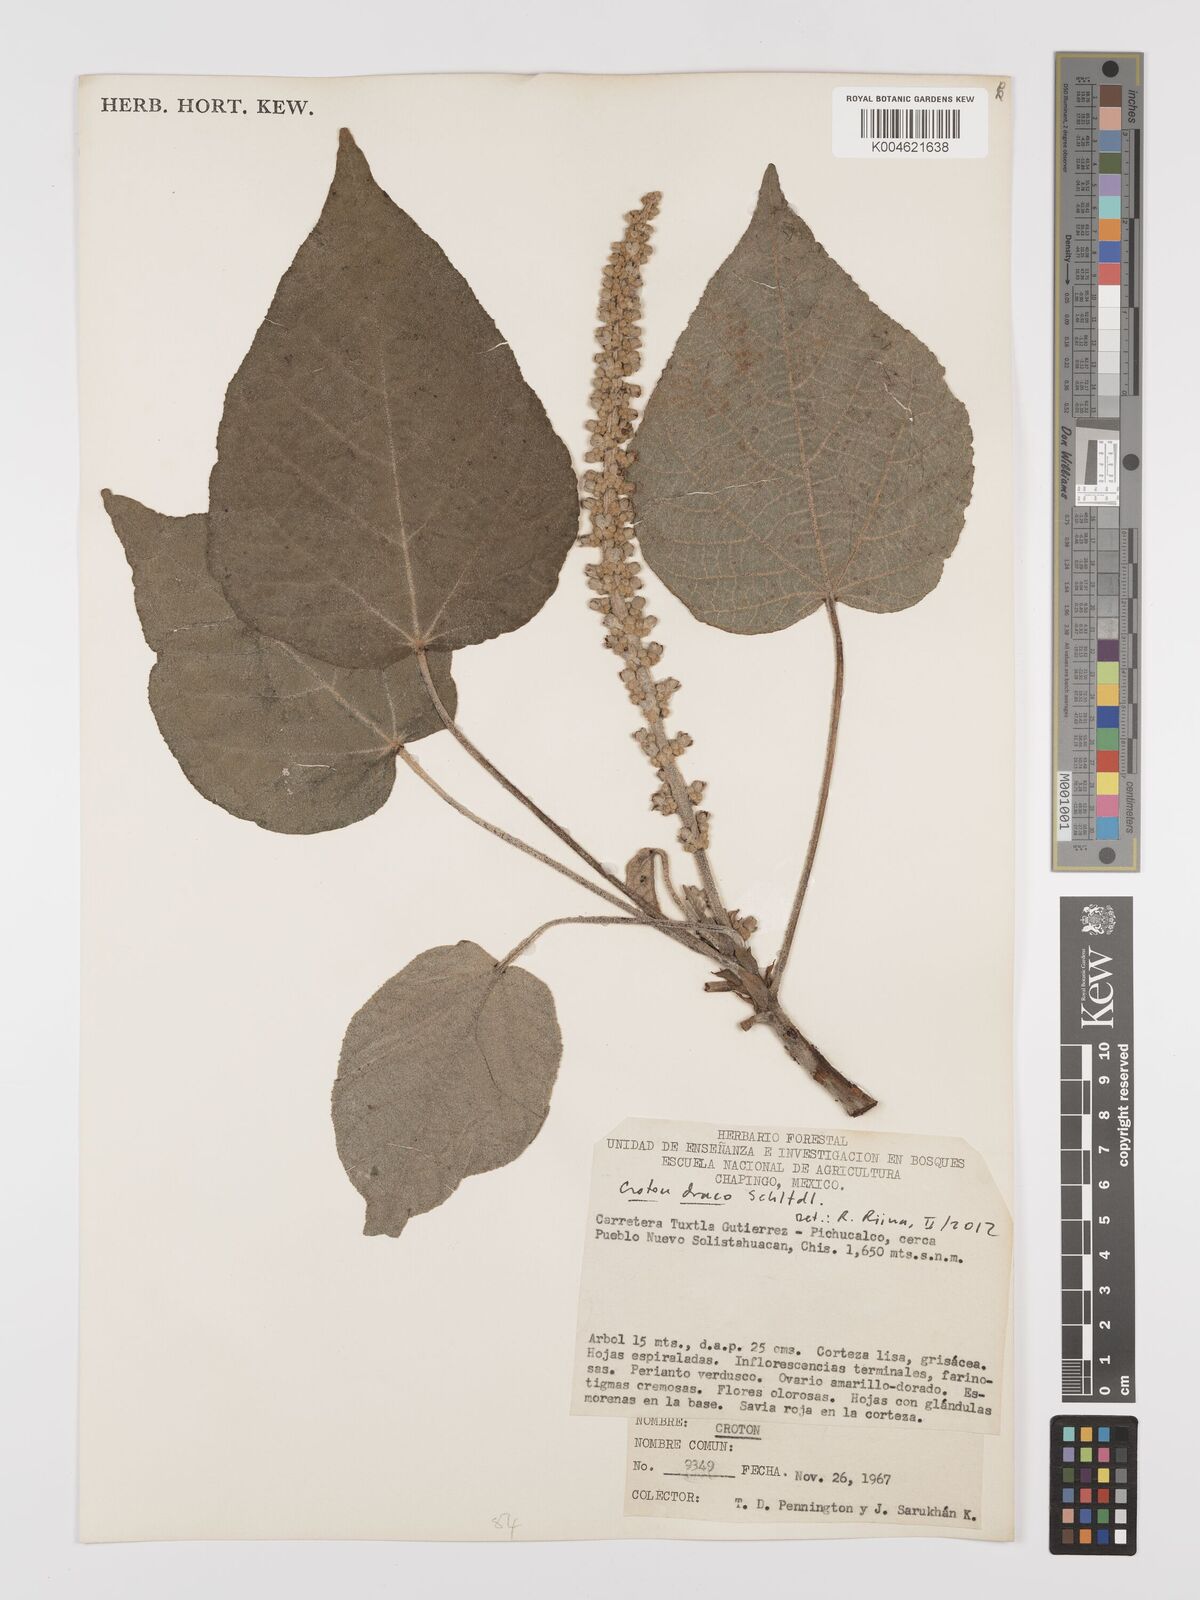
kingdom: Plantae
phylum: Tracheophyta
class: Magnoliopsida
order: Malpighiales
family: Euphorbiaceae
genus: Croton
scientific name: Croton draco
